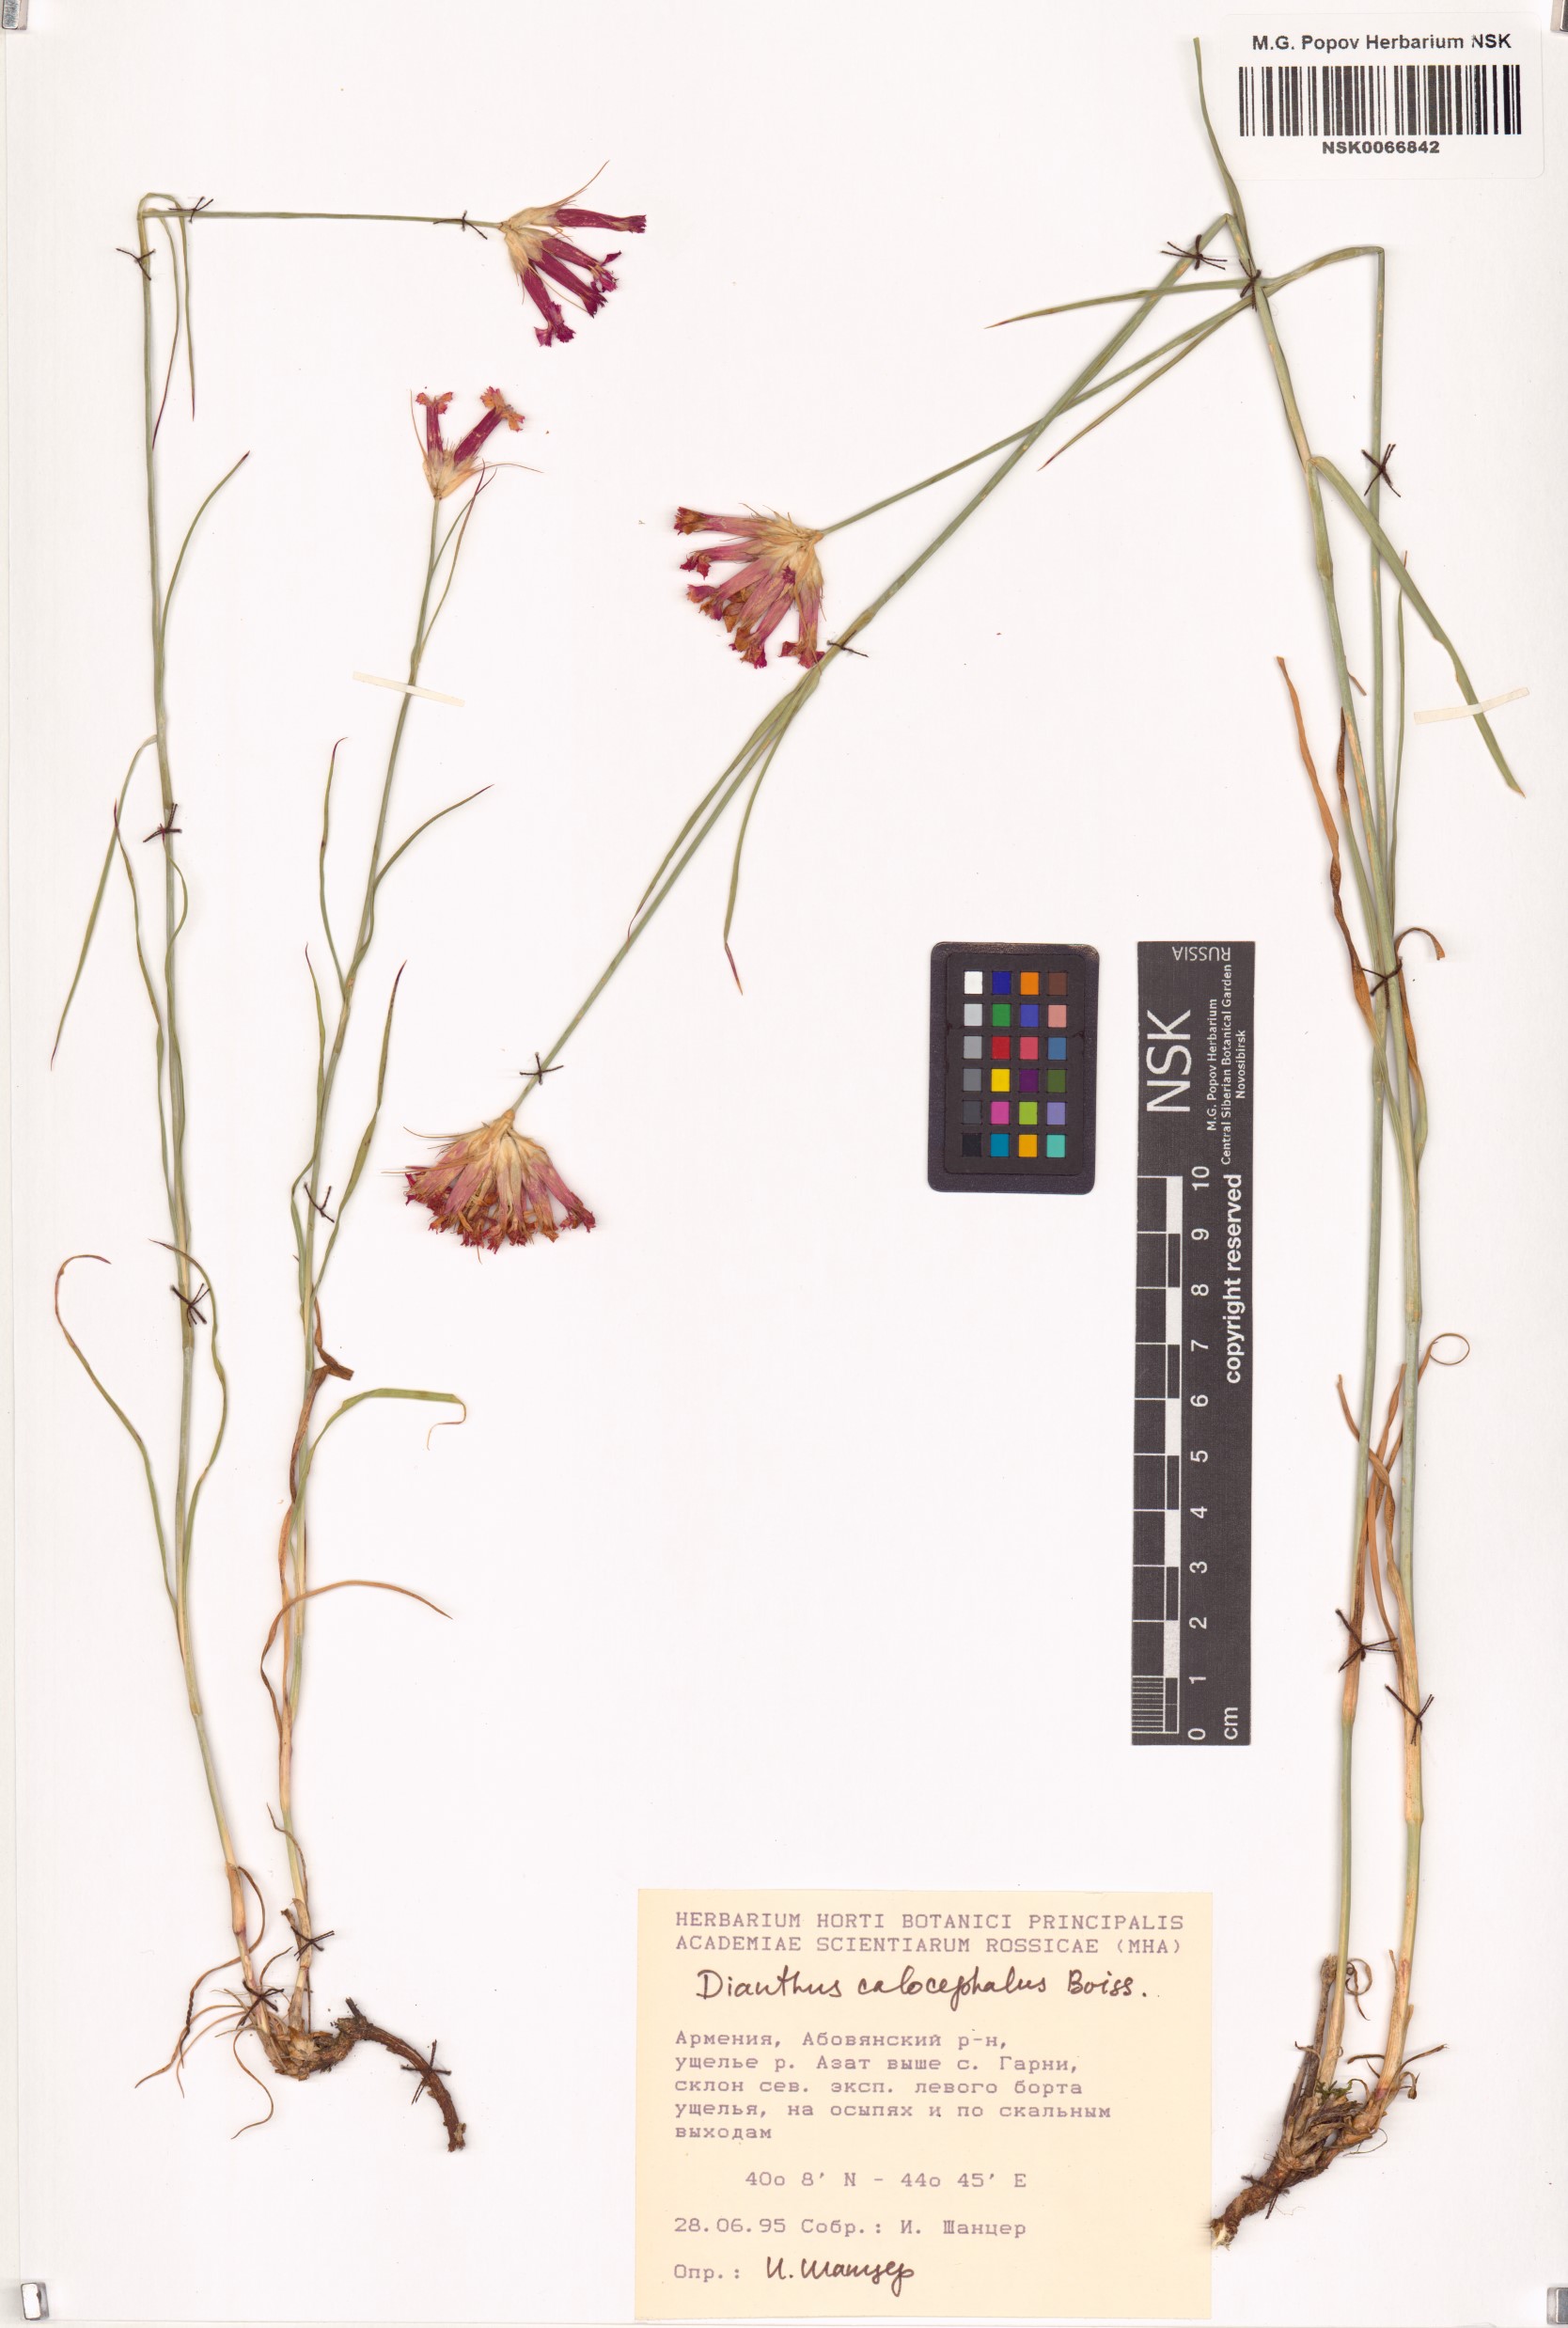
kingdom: Plantae
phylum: Tracheophyta
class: Magnoliopsida
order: Caryophyllales
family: Caryophyllaceae
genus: Dianthus
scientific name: Dianthus cruentus
